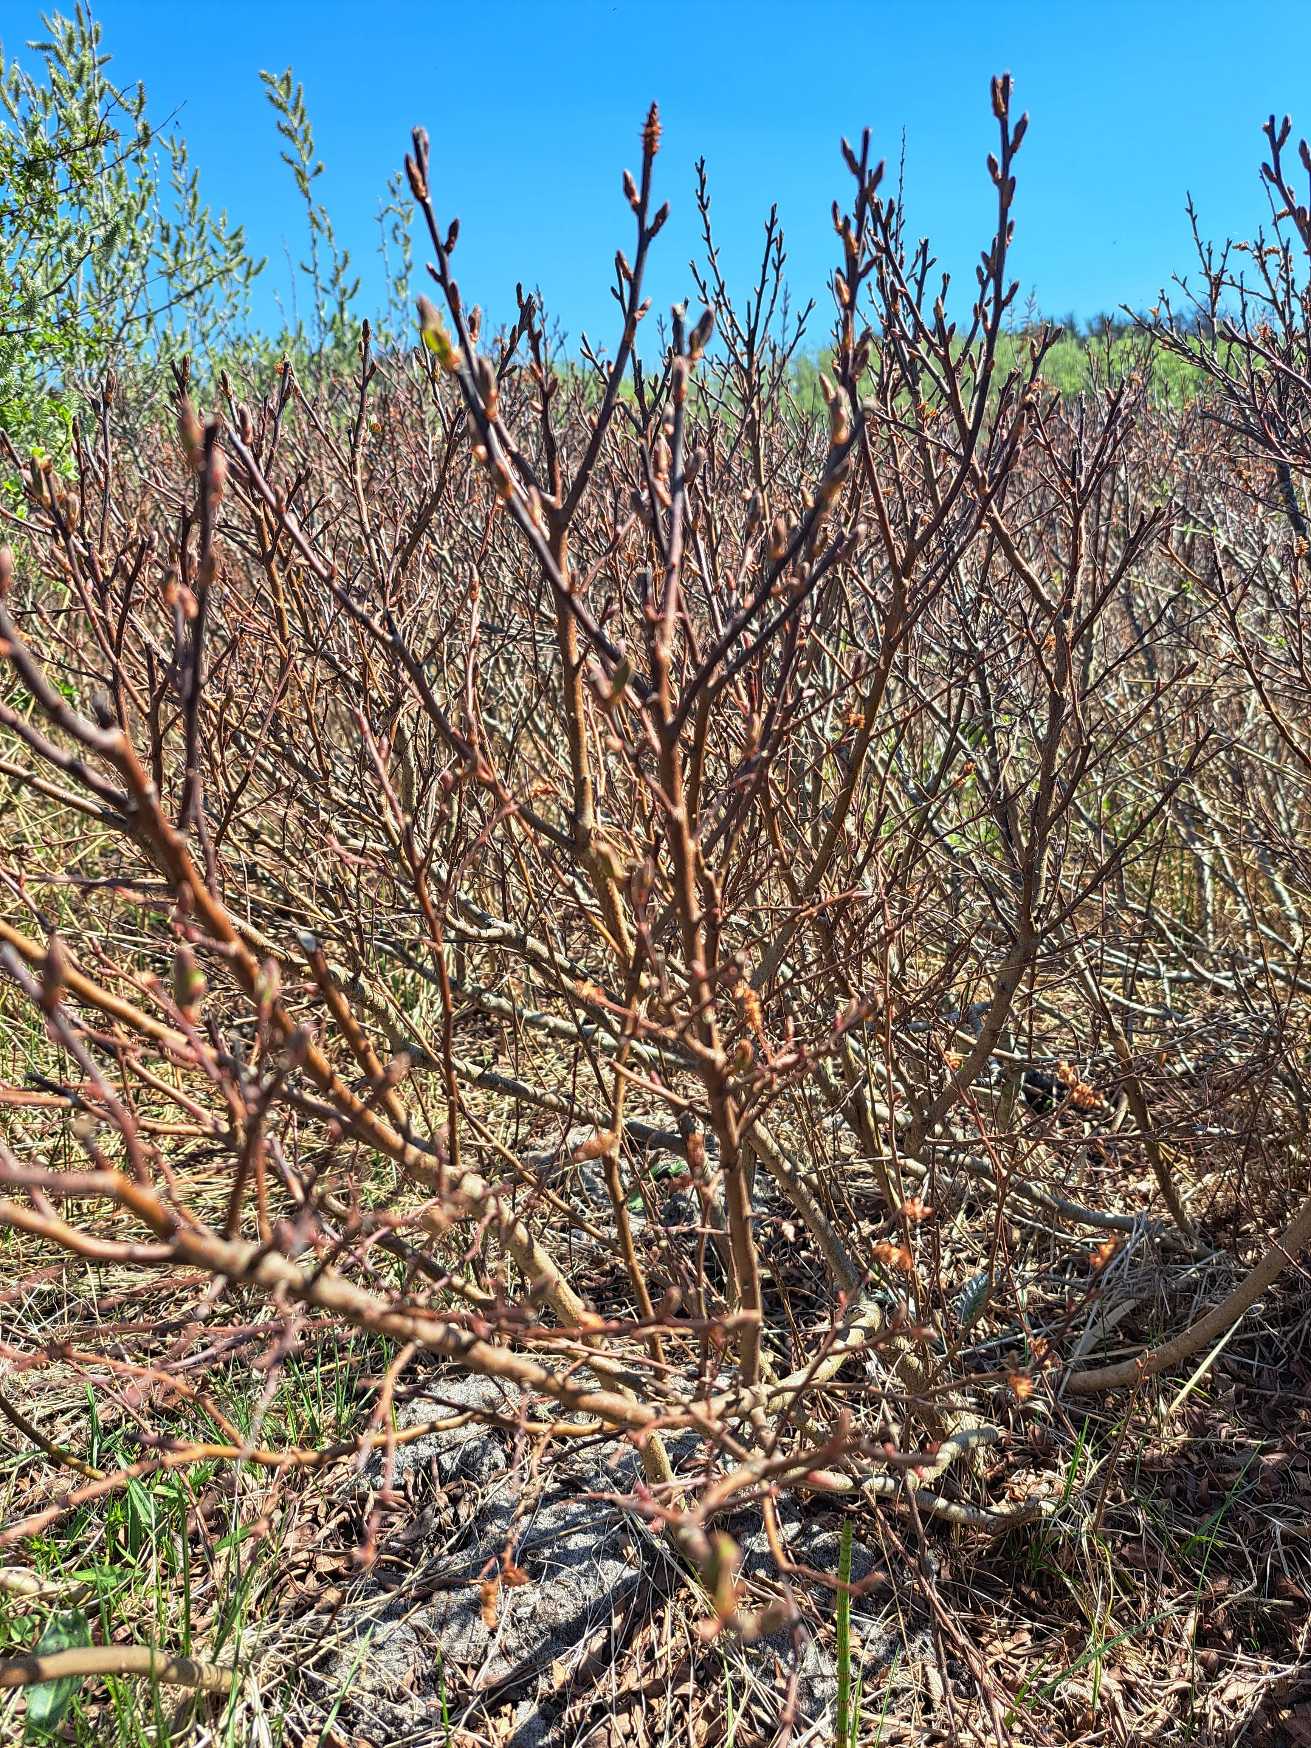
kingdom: Plantae
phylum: Tracheophyta
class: Magnoliopsida
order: Fagales
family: Myricaceae
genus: Myrica
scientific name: Myrica gale
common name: Pors
